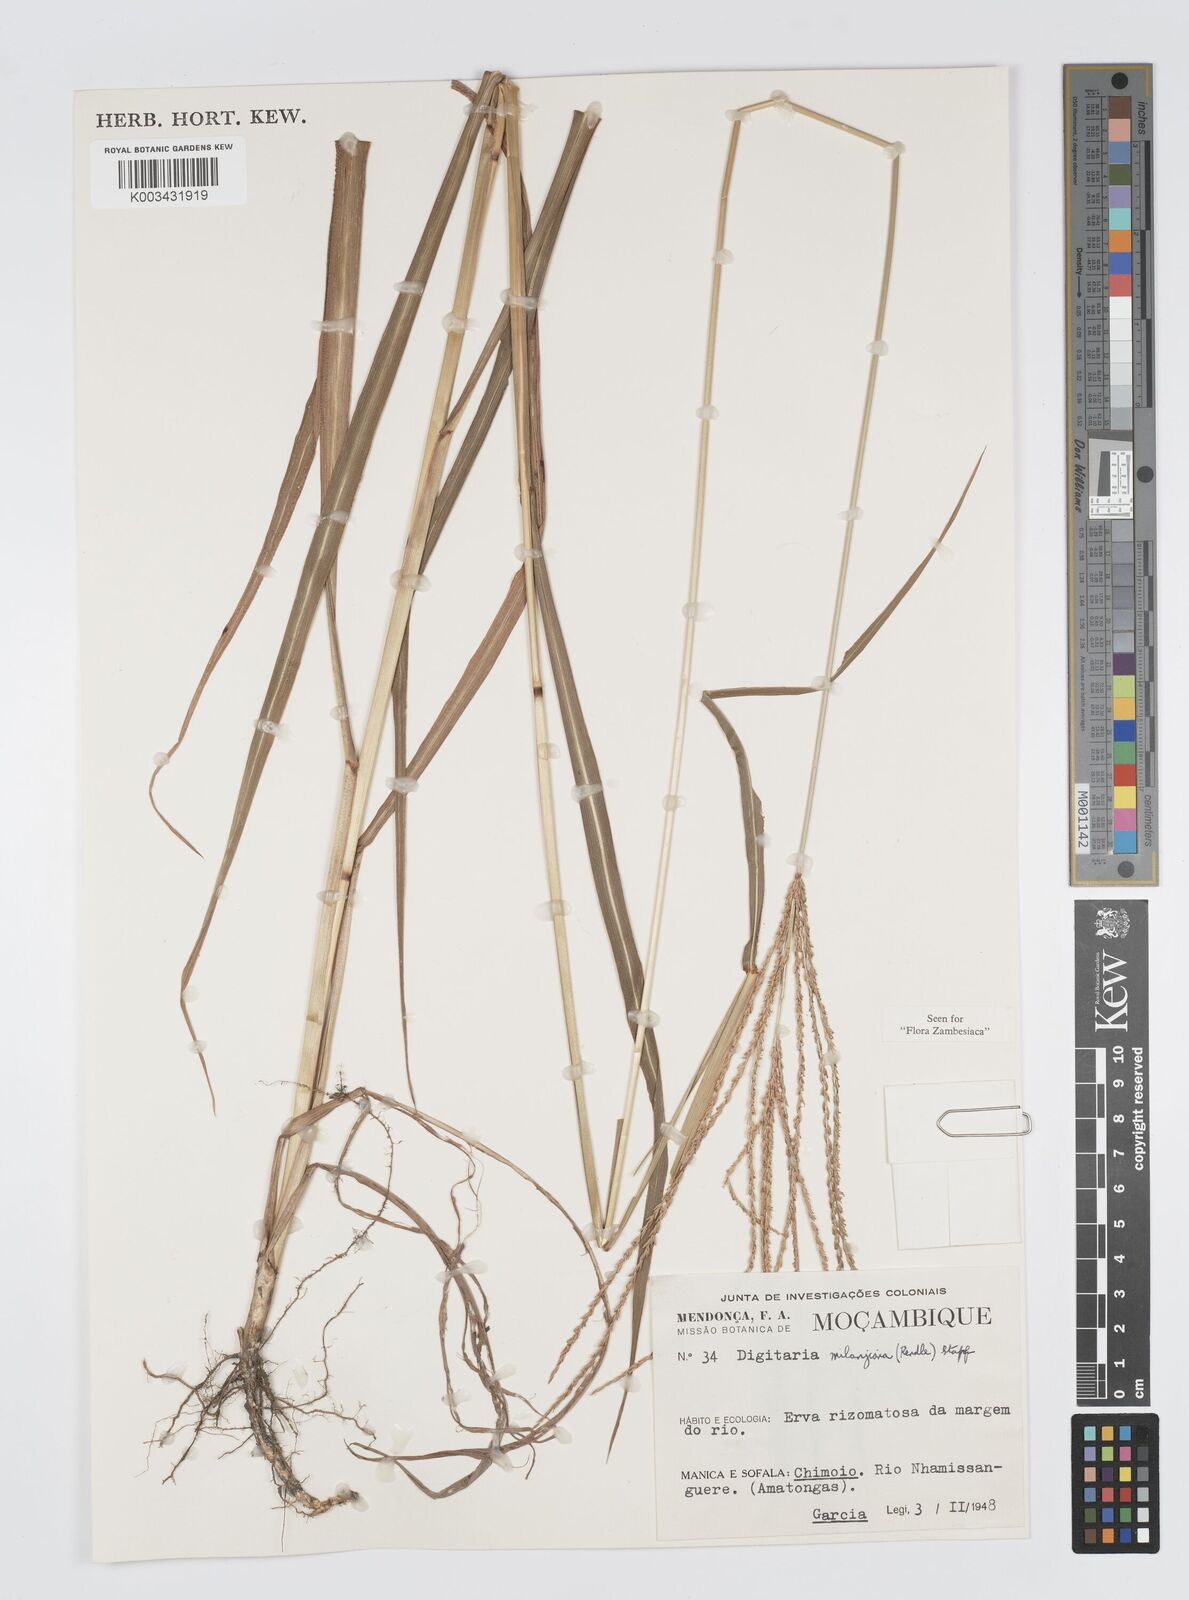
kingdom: Plantae
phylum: Tracheophyta
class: Liliopsida
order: Poales
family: Poaceae
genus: Digitaria
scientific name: Digitaria milanjiana
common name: Madagascar crabgrass
